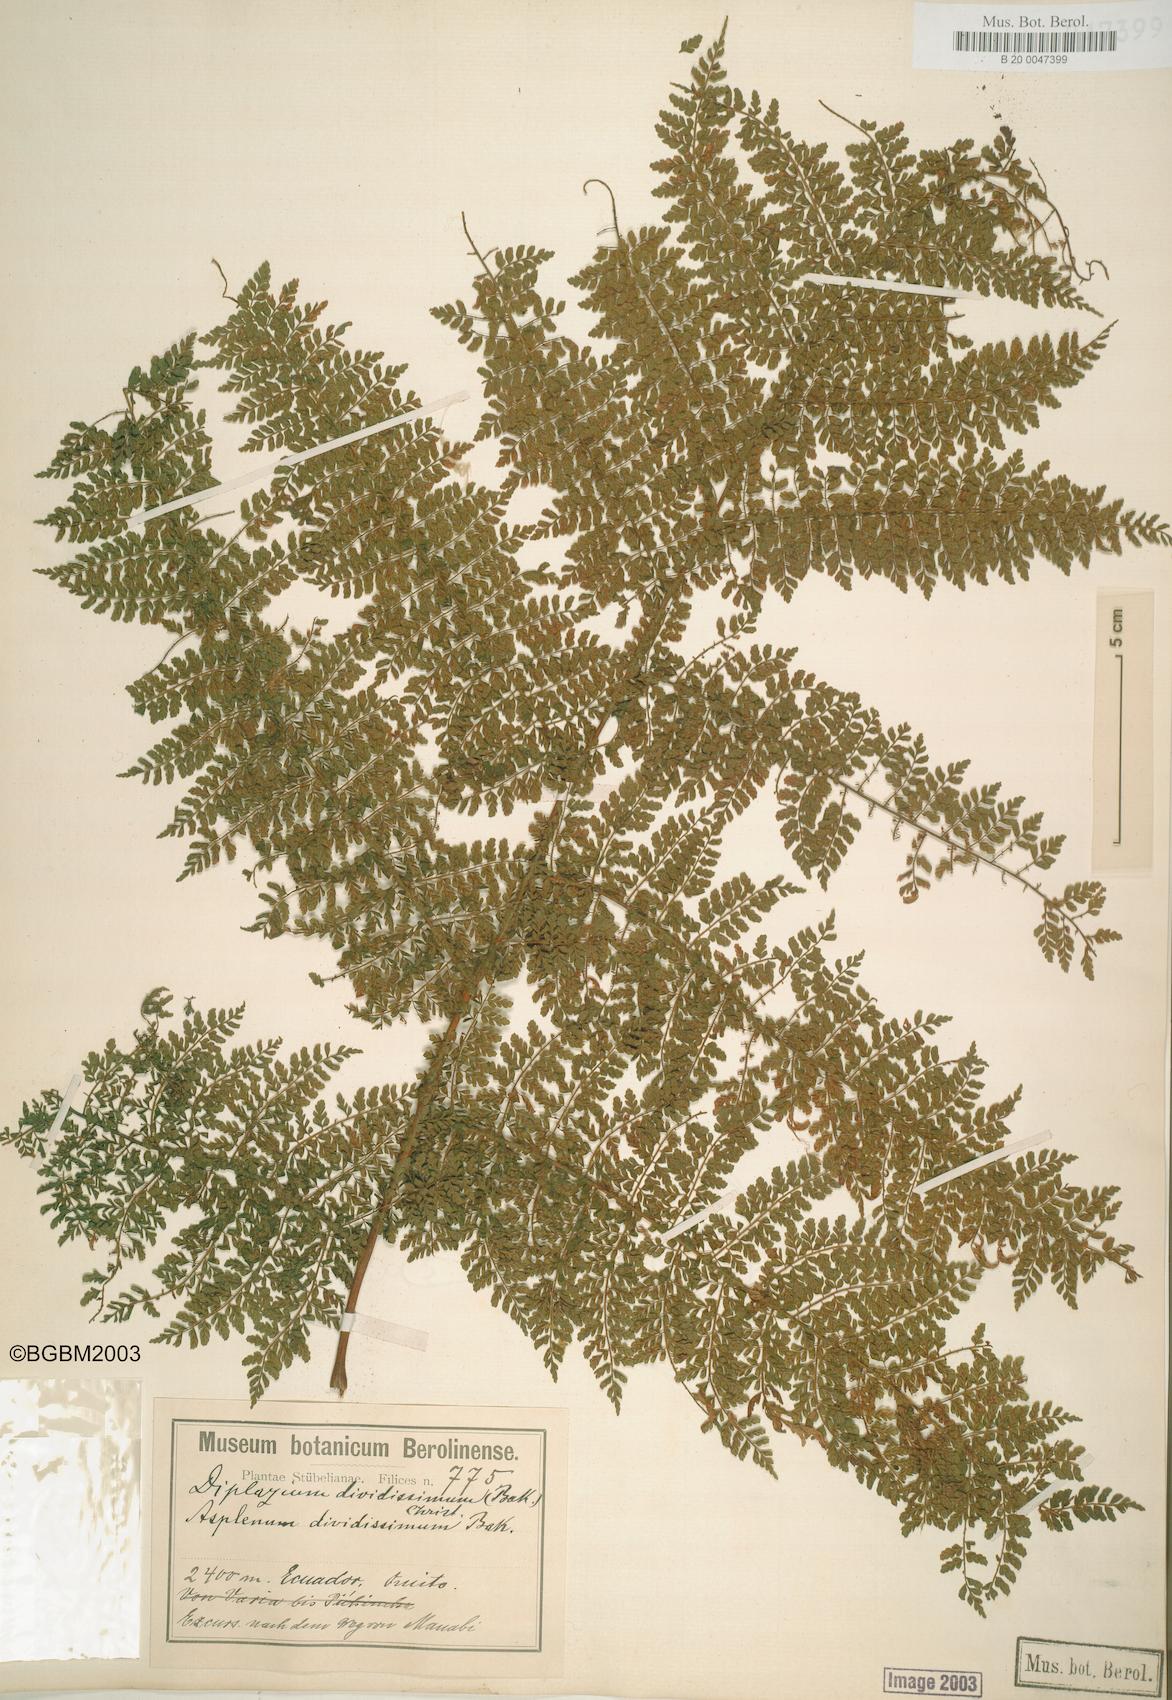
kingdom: Plantae
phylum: Tracheophyta
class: Polypodiopsida
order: Polypodiales
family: Athyriaceae
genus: Diplazium
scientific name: Diplazium divisissimum
